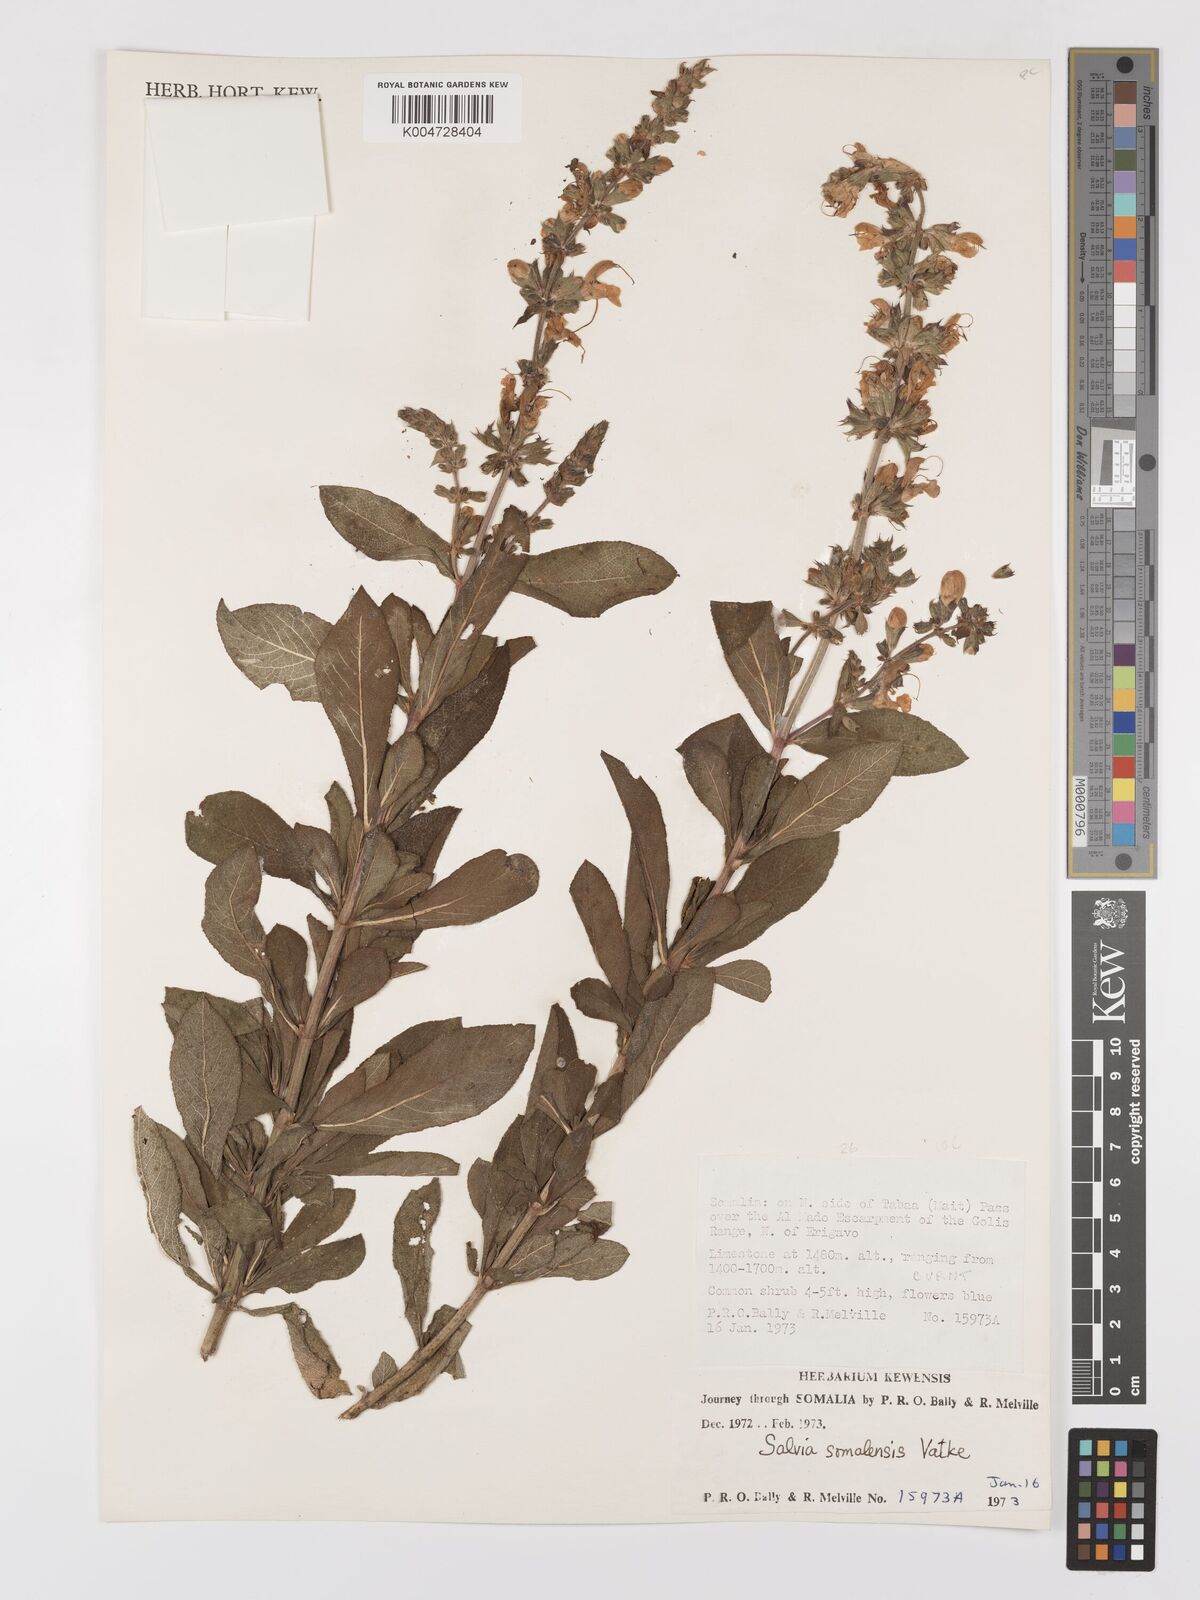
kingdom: Plantae
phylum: Tracheophyta
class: Magnoliopsida
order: Lamiales
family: Lamiaceae
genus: Salvia
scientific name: Salvia somalensis
